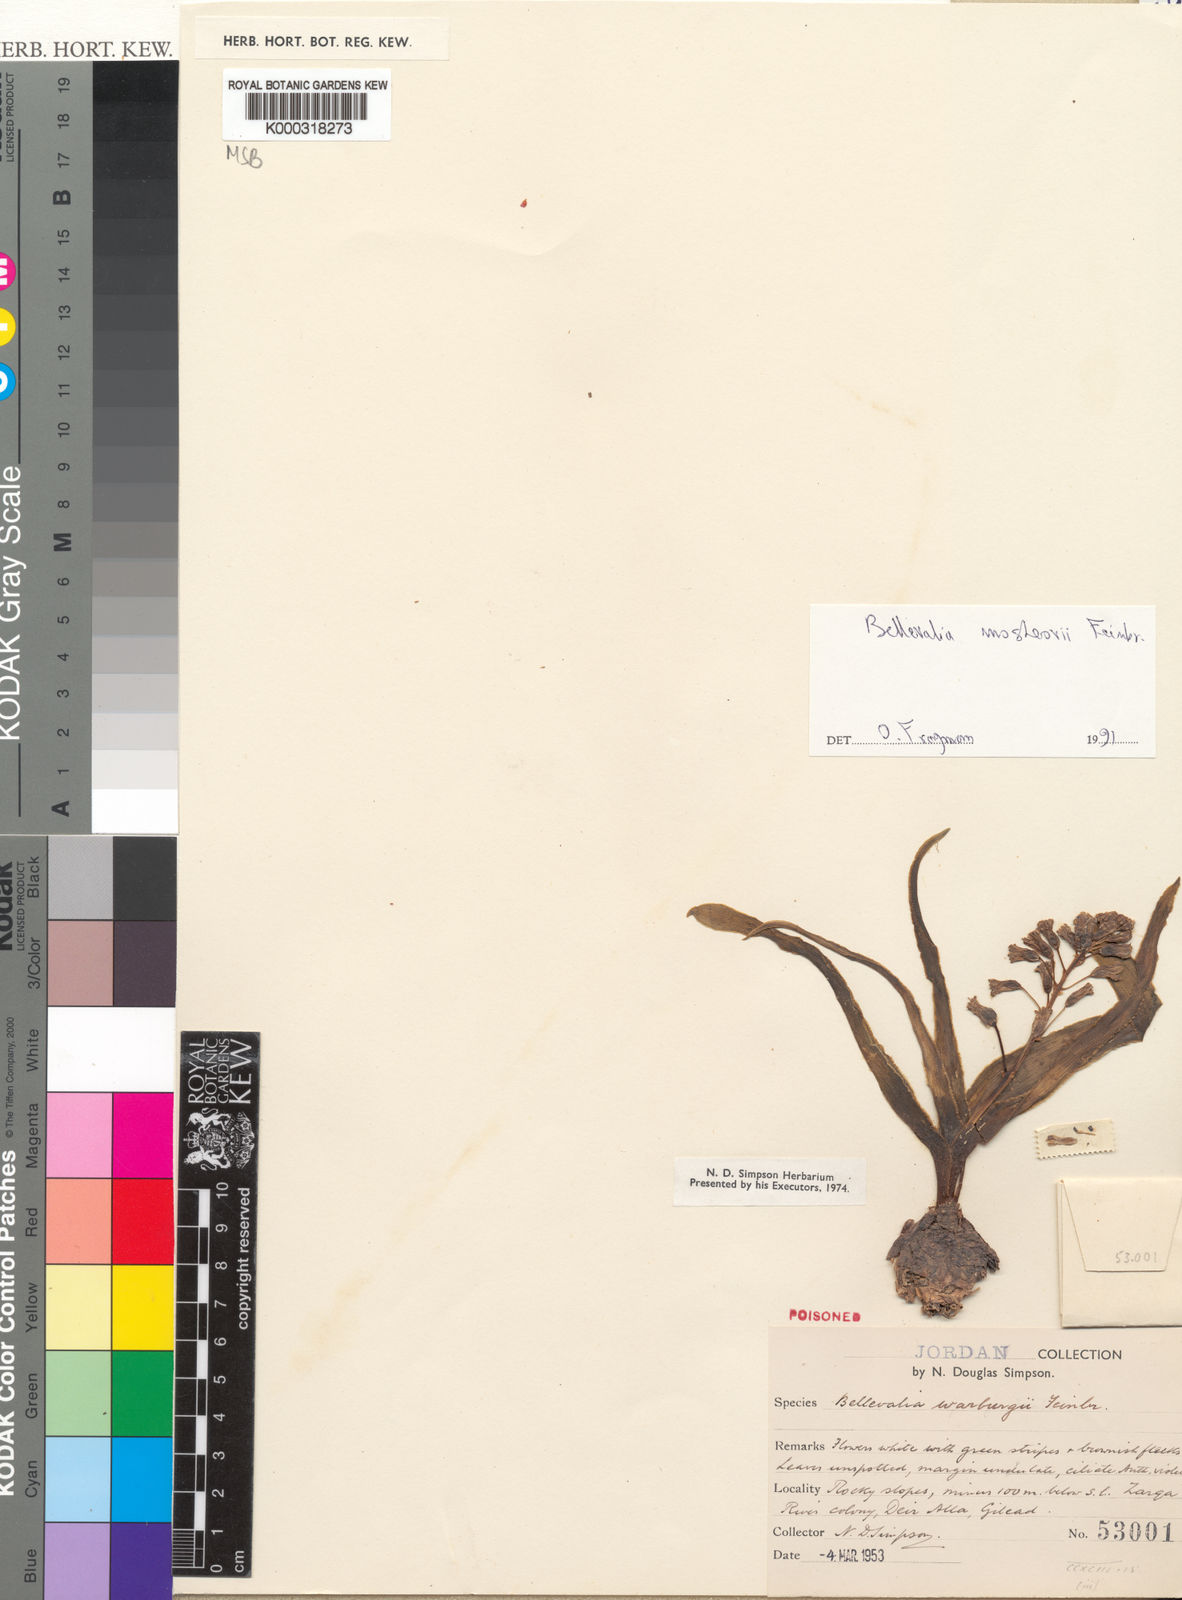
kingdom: Plantae
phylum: Tracheophyta
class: Liliopsida
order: Asparagales
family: Asparagaceae
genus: Bellevalia
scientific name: Bellevalia mosheovii
